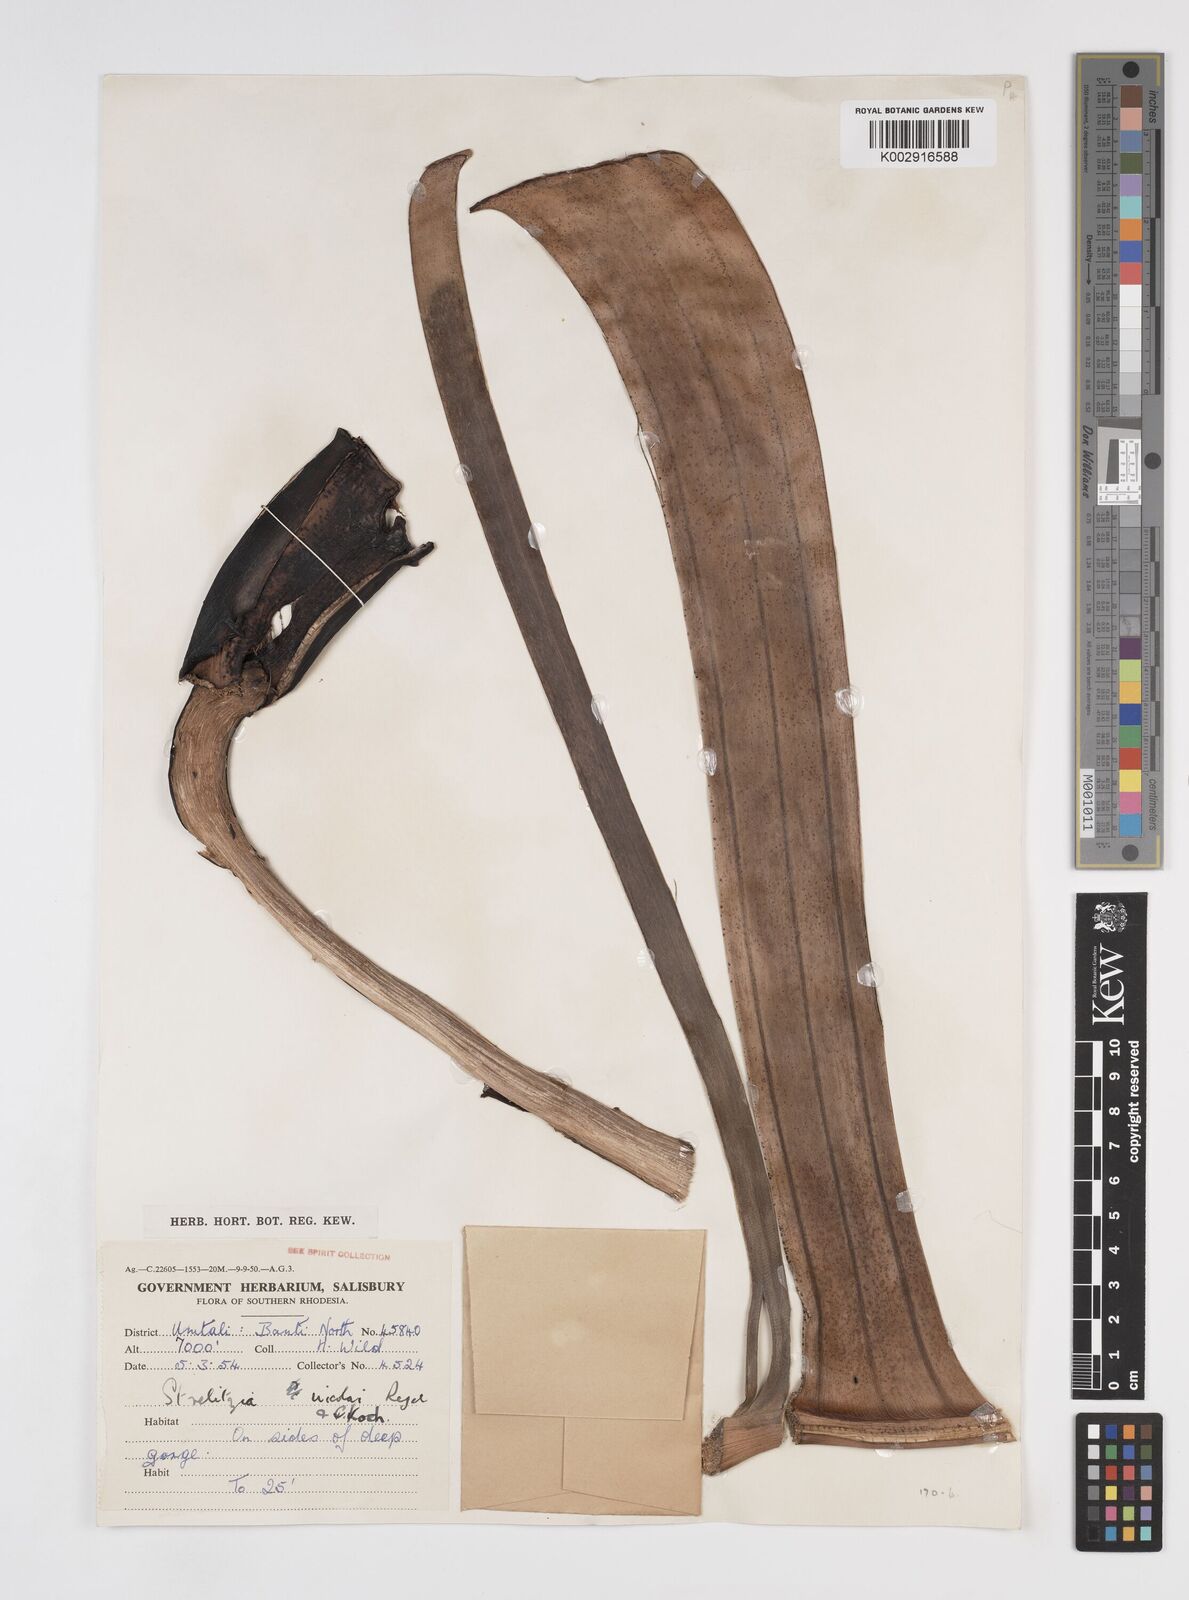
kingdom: Plantae
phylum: Tracheophyta
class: Liliopsida
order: Zingiberales
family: Strelitziaceae
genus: Strelitzia
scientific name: Strelitzia nicolai
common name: Bird-of-paradise tree
